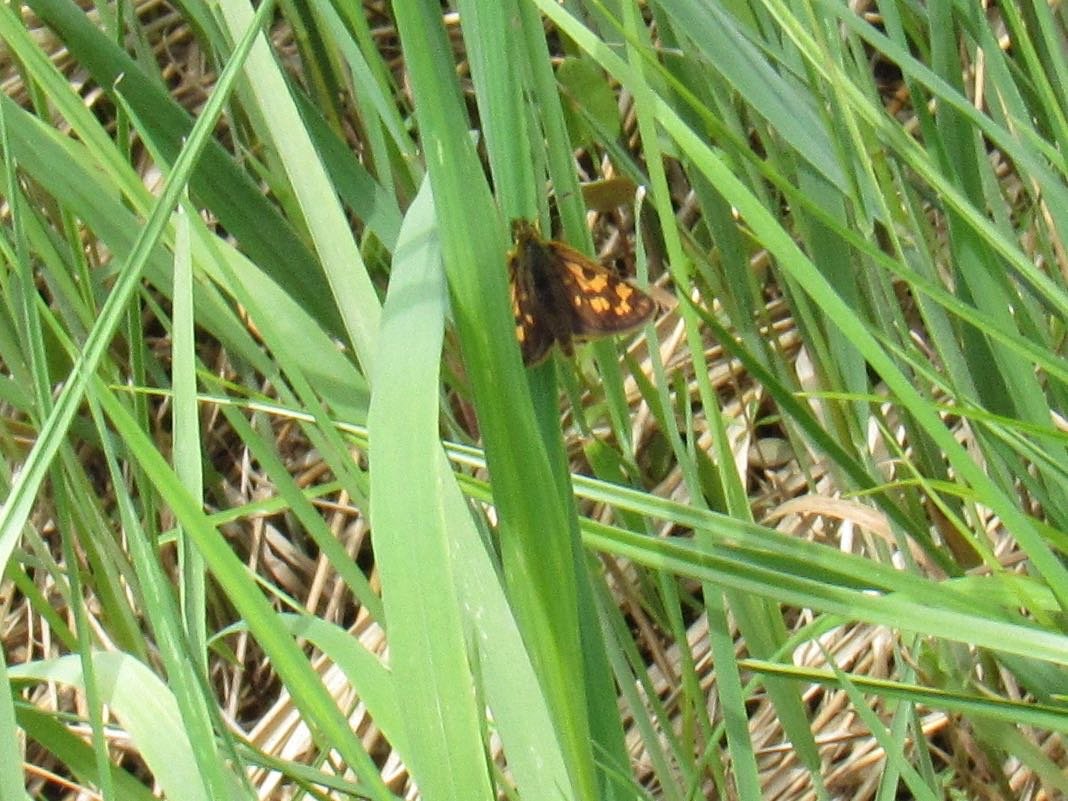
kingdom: Animalia
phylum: Arthropoda
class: Insecta
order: Lepidoptera
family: Hesperiidae
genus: Carterocephalus
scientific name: Carterocephalus palaemon
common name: Chequered Skipper
